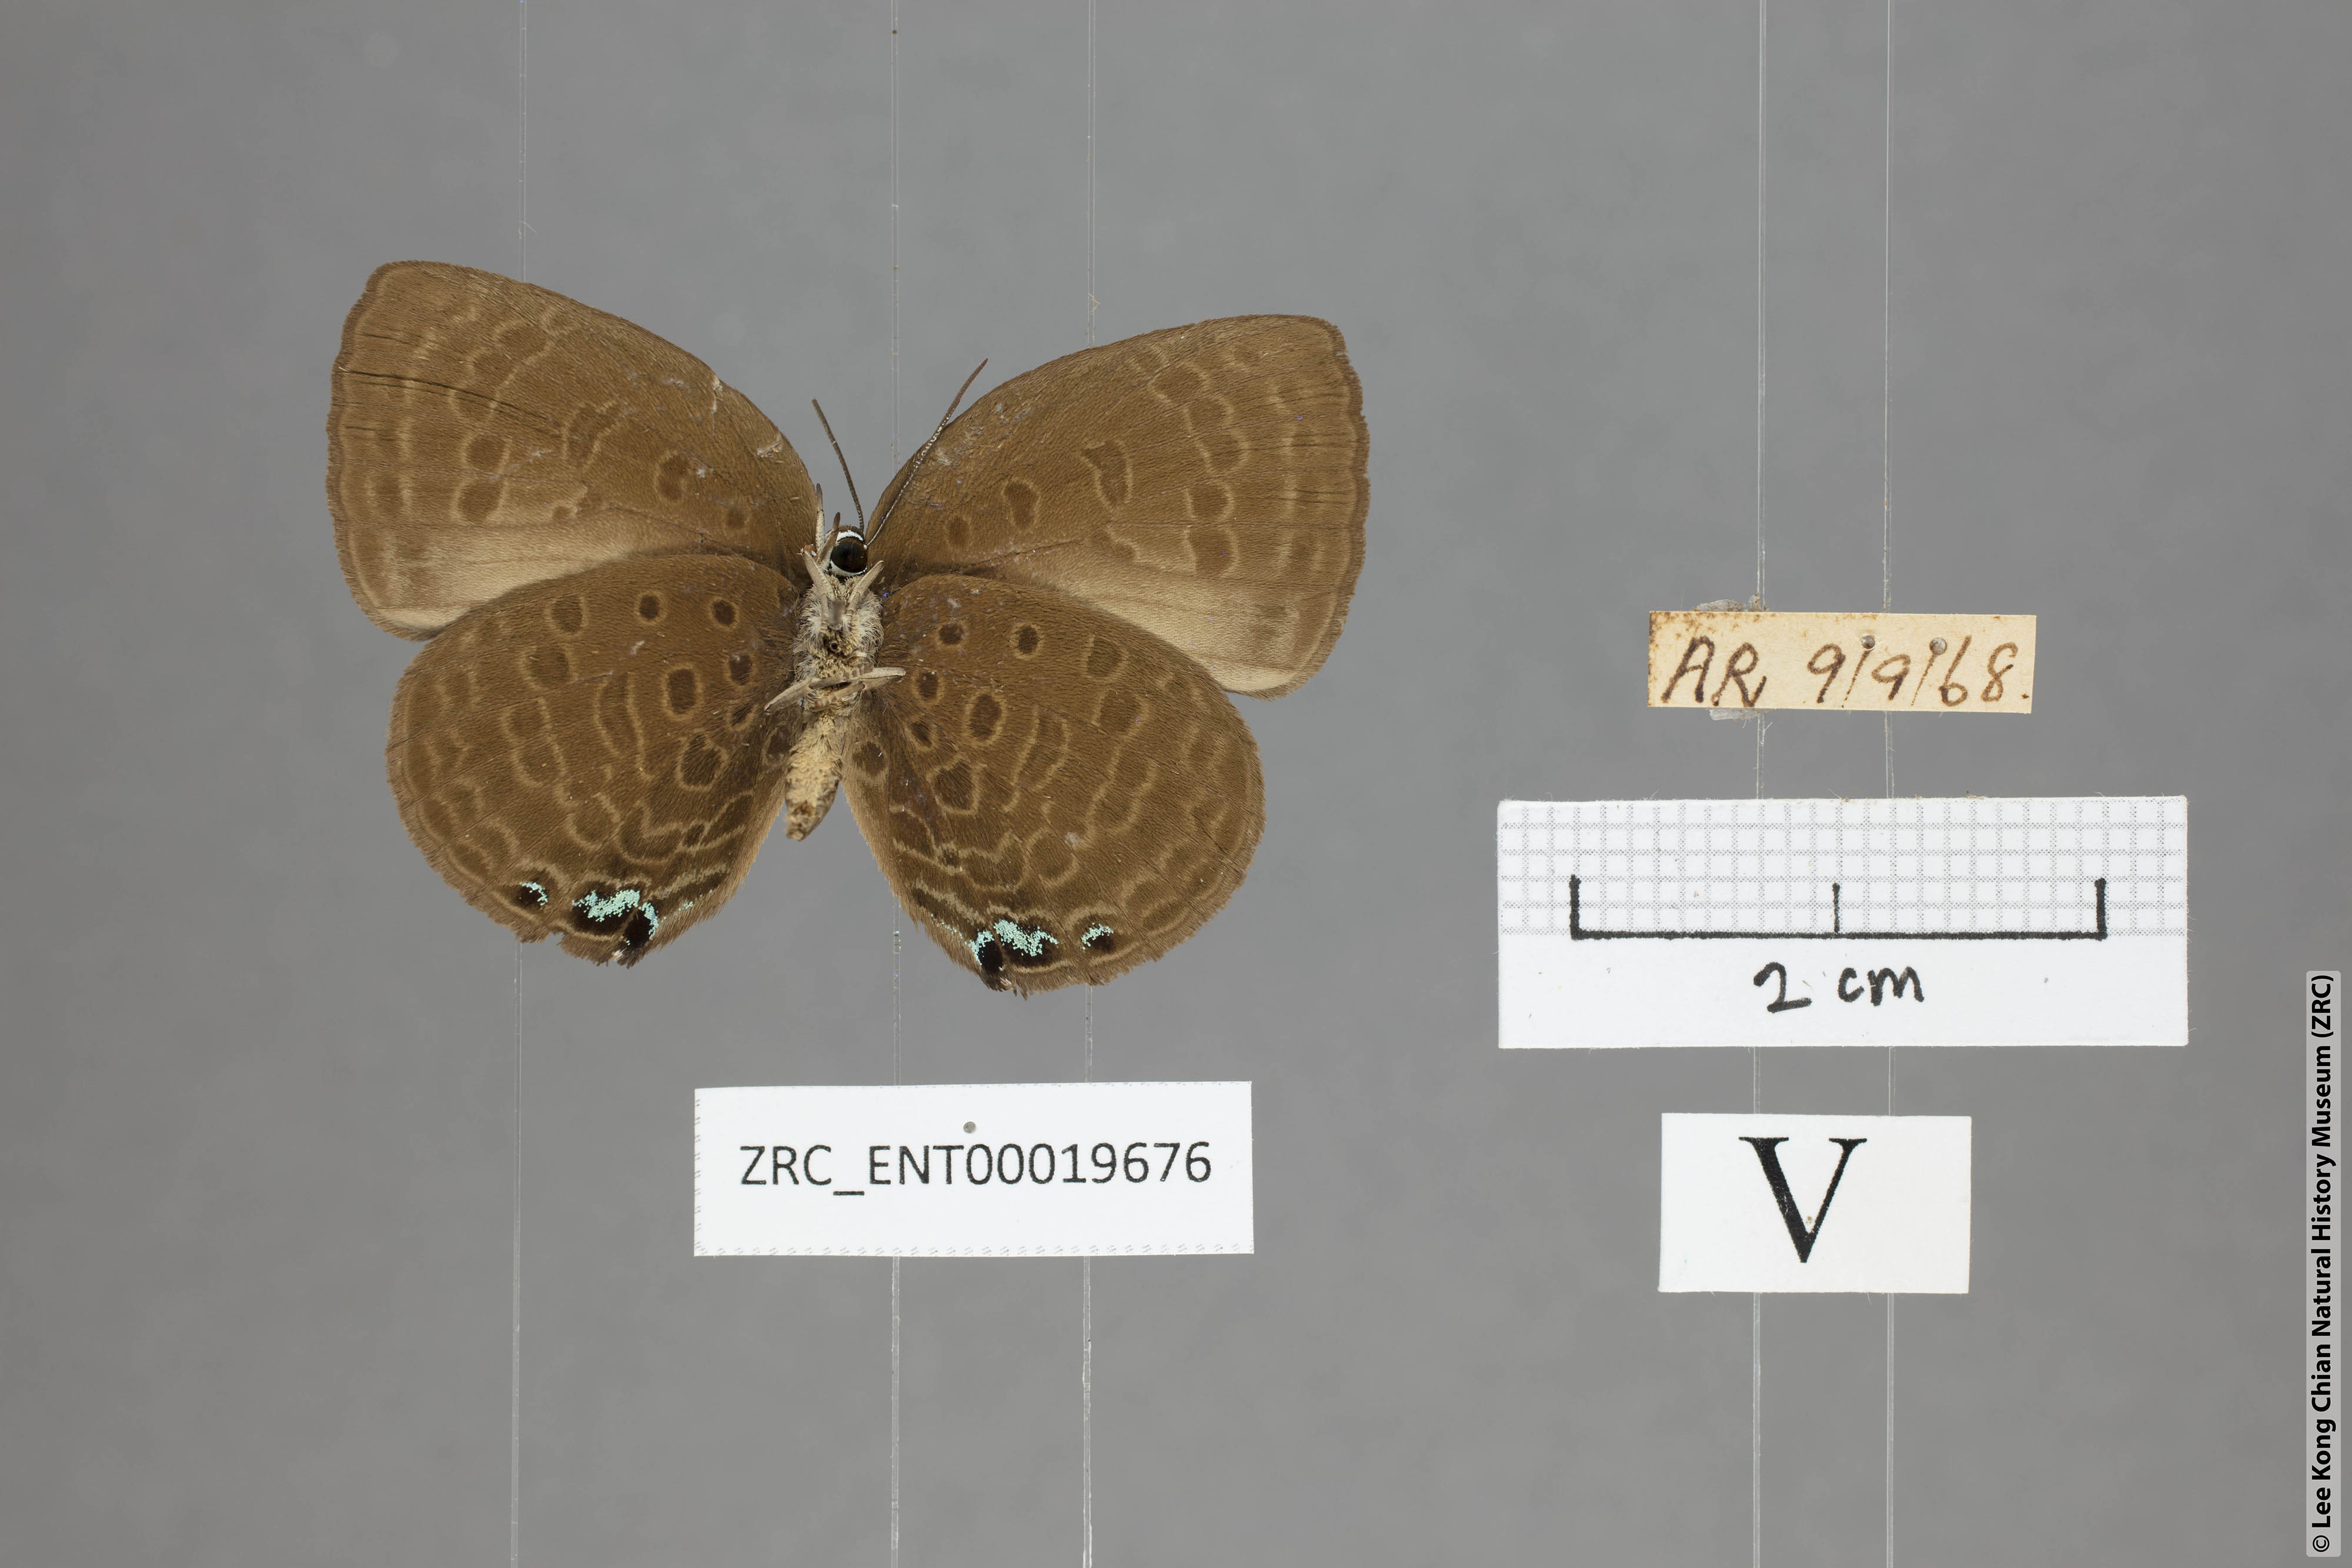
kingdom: Animalia
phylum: Arthropoda
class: Insecta
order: Lepidoptera
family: Lycaenidae
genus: Arhopala
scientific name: Arhopala moolaina
